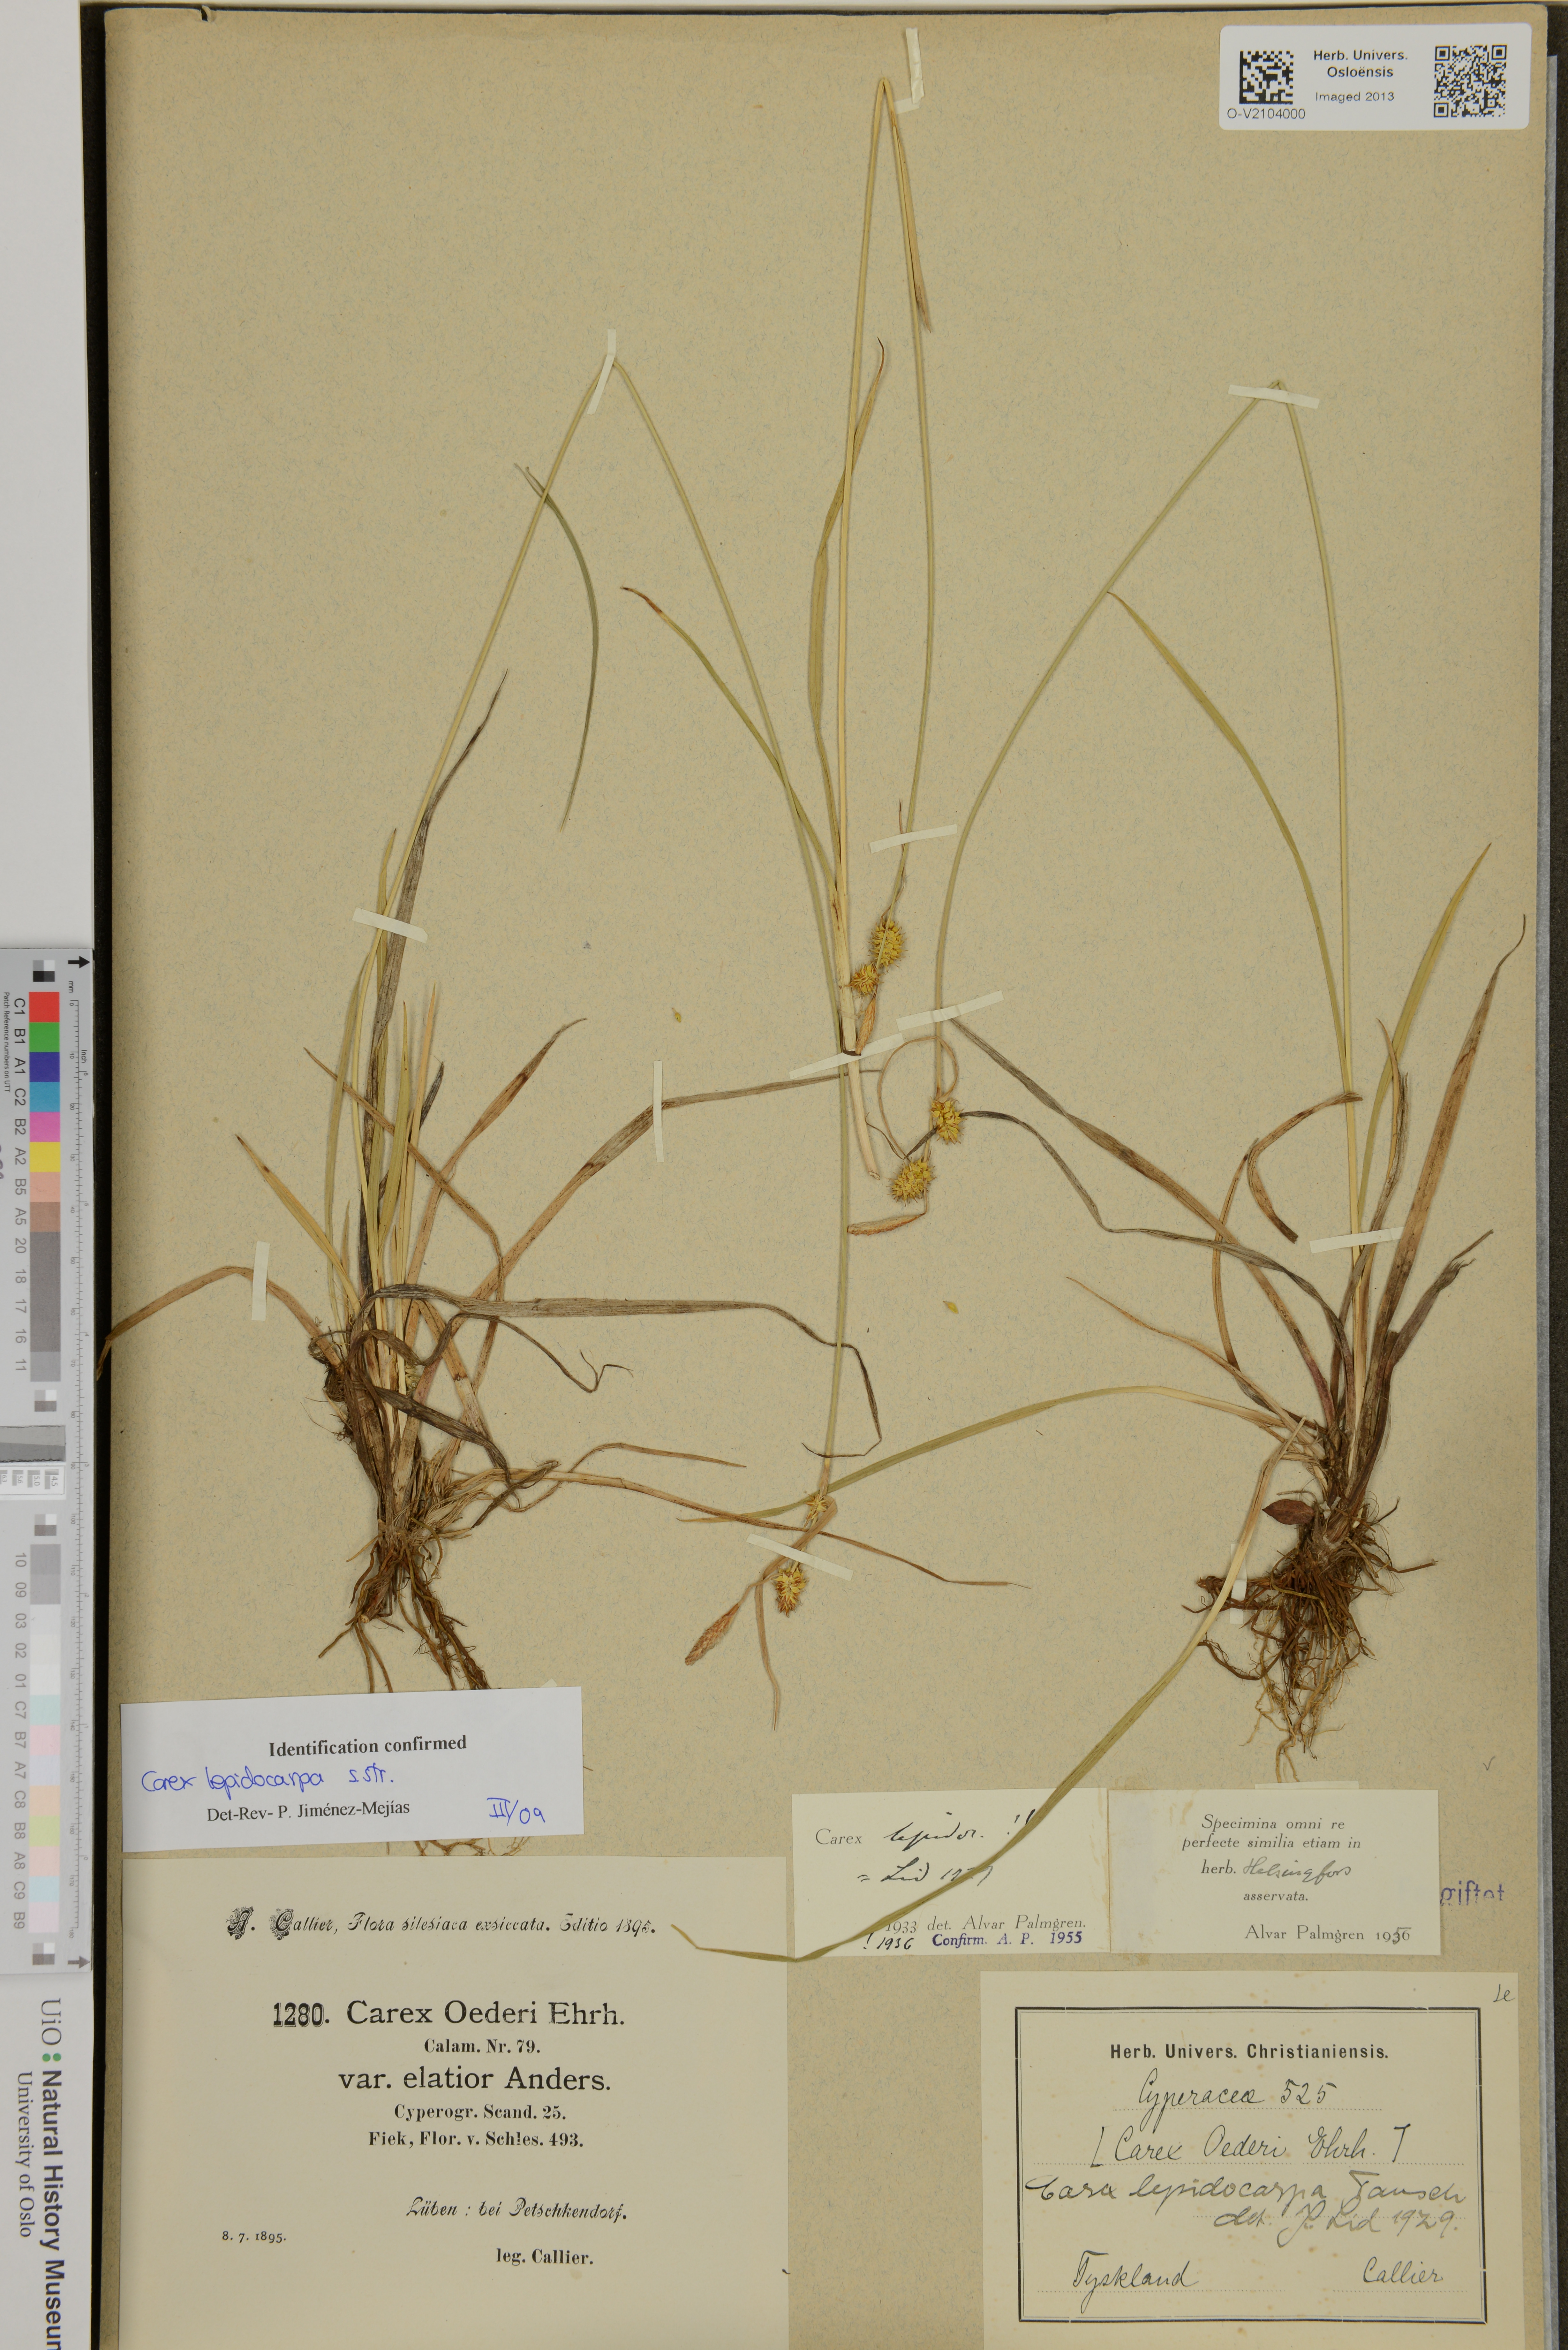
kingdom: Plantae
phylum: Tracheophyta
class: Liliopsida
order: Poales
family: Cyperaceae
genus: Carex
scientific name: Carex lepidocarpa
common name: Long-stalked yellow-sedge
